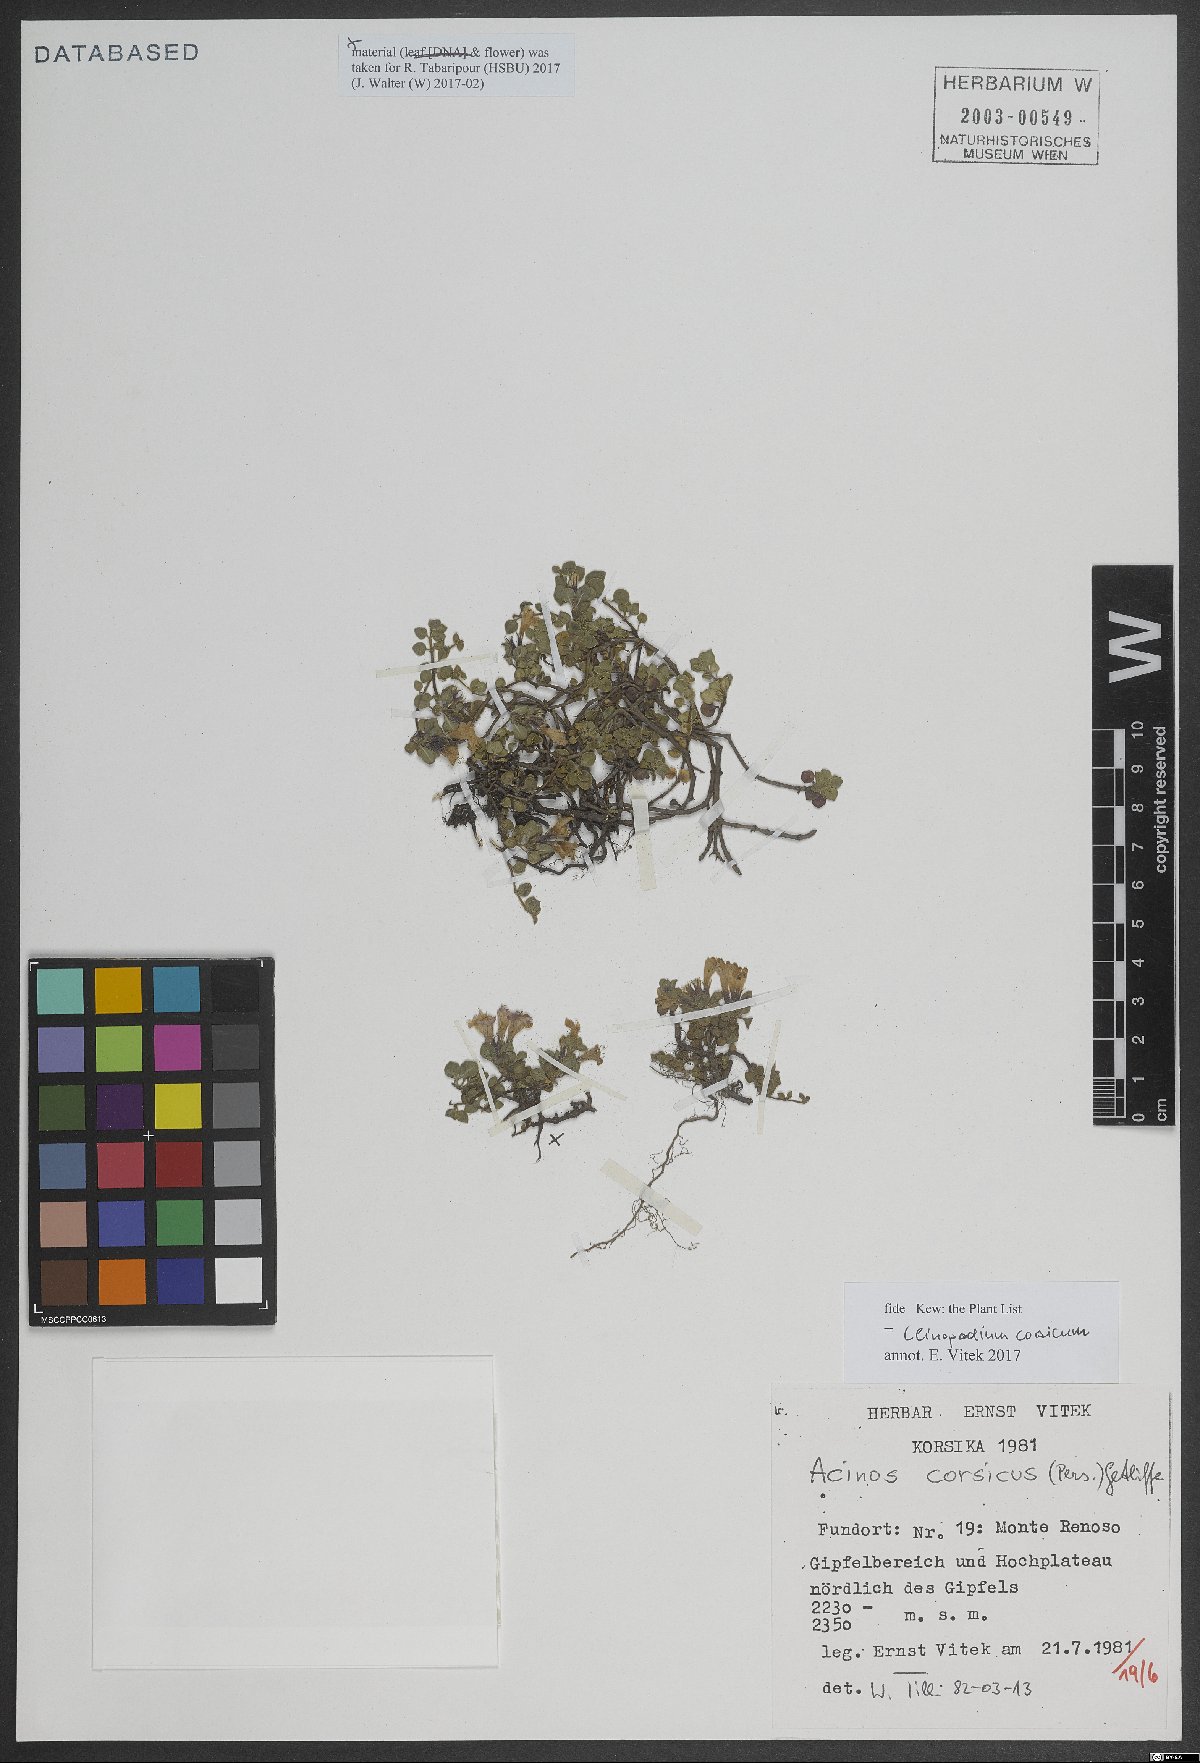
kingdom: Plantae
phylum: Tracheophyta
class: Magnoliopsida
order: Lamiales
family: Lamiaceae
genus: Clinopodium
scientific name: Clinopodium corsicum
